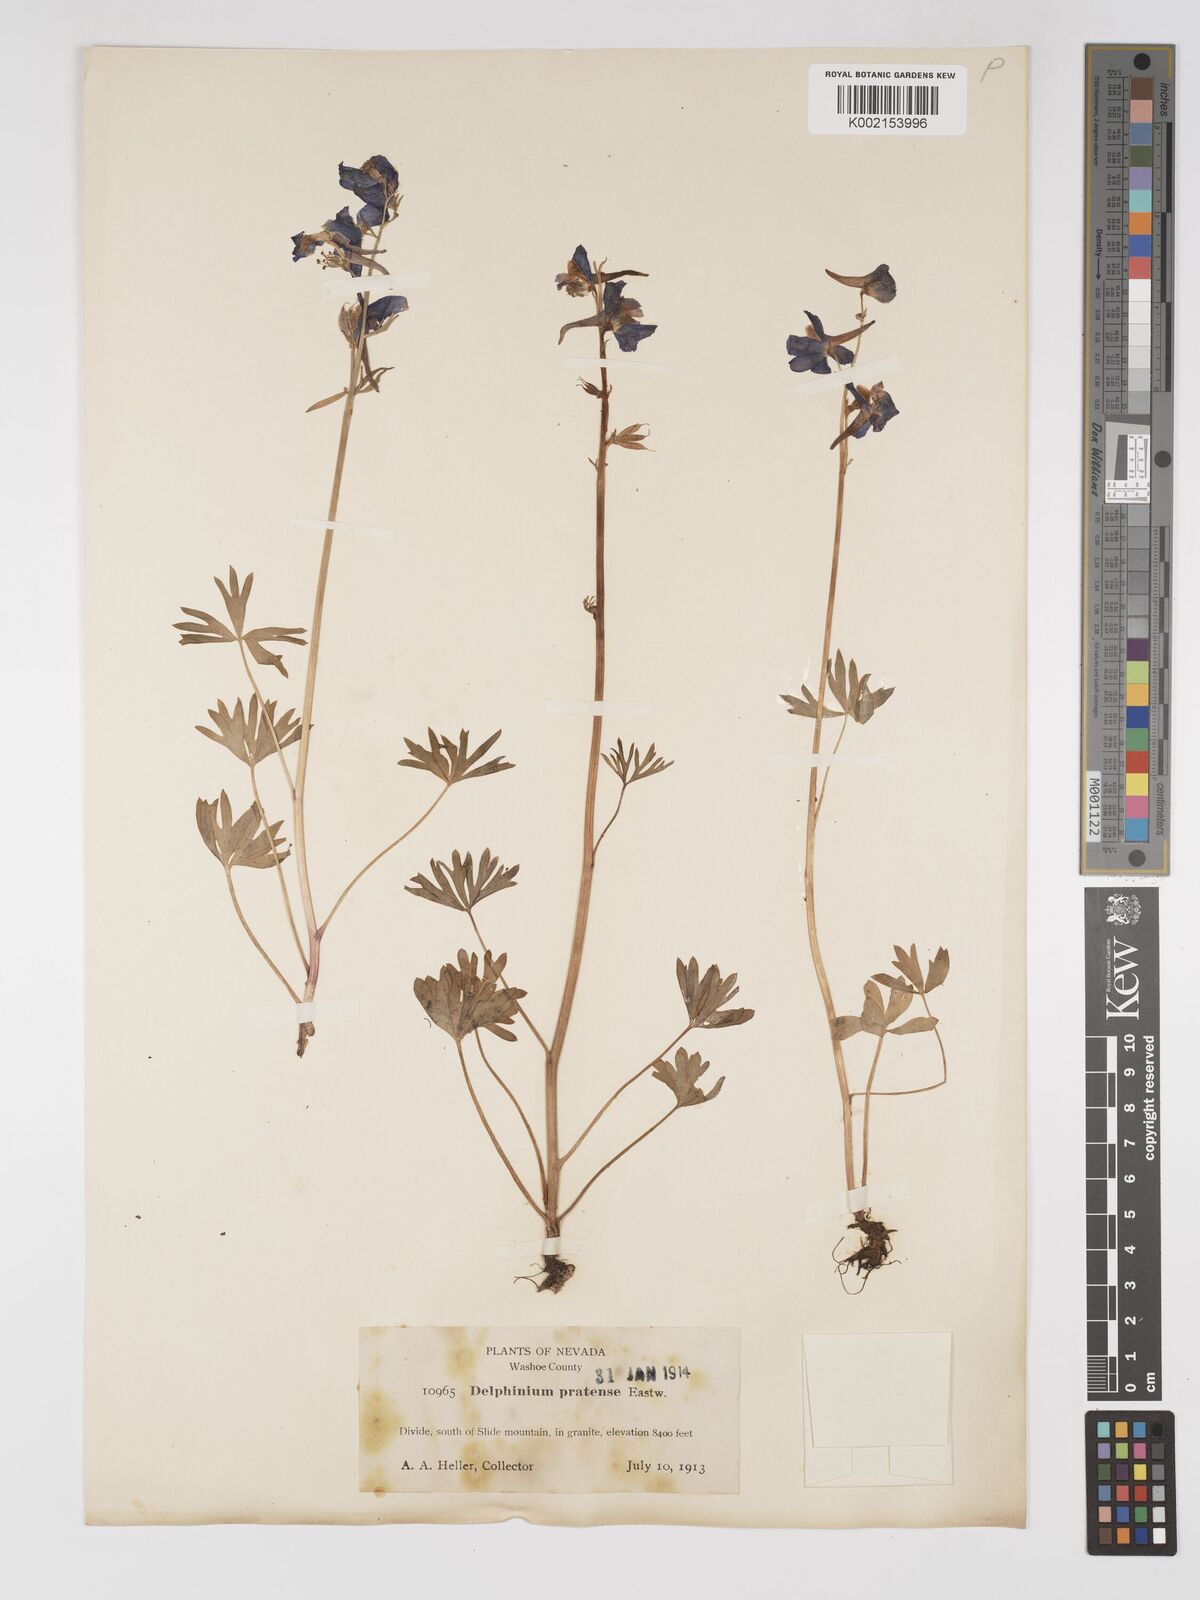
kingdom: Plantae
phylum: Tracheophyta
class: Magnoliopsida
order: Ranunculales
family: Ranunculaceae
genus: Delphinium
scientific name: Delphinium gracilentum
